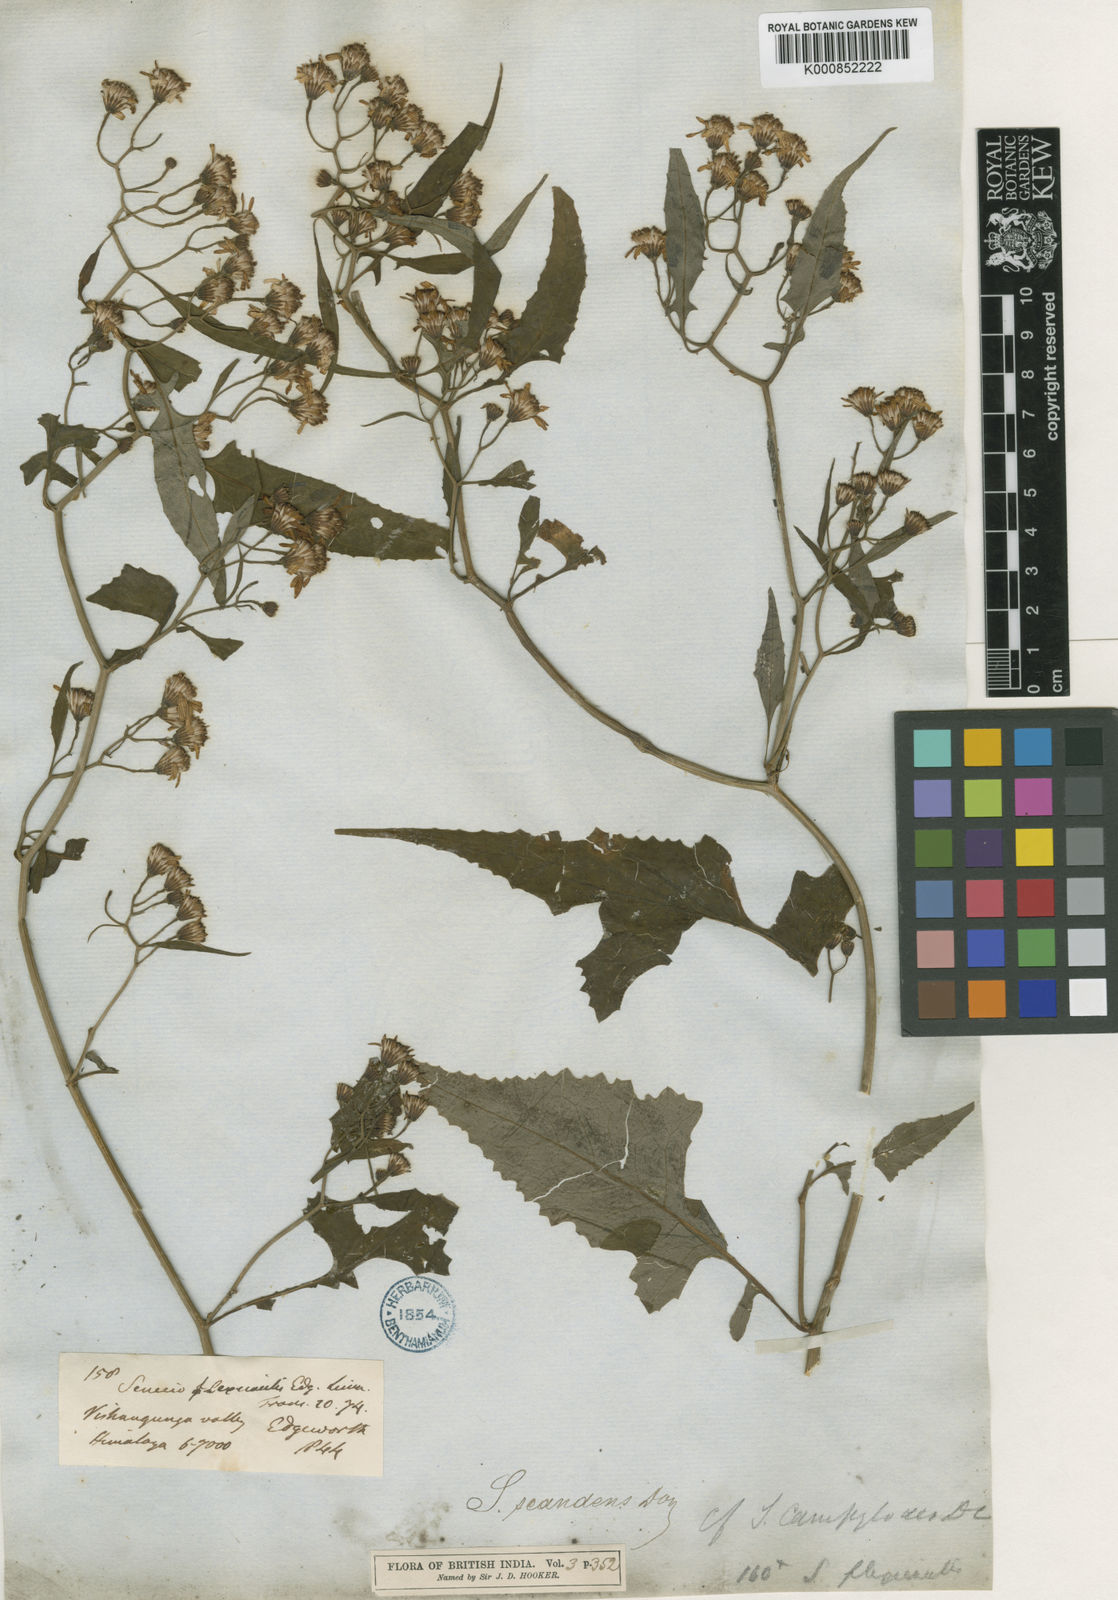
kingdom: Plantae
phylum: Tracheophyta
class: Magnoliopsida
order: Asterales
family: Asteraceae
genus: Senecio
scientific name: Senecio scandens
